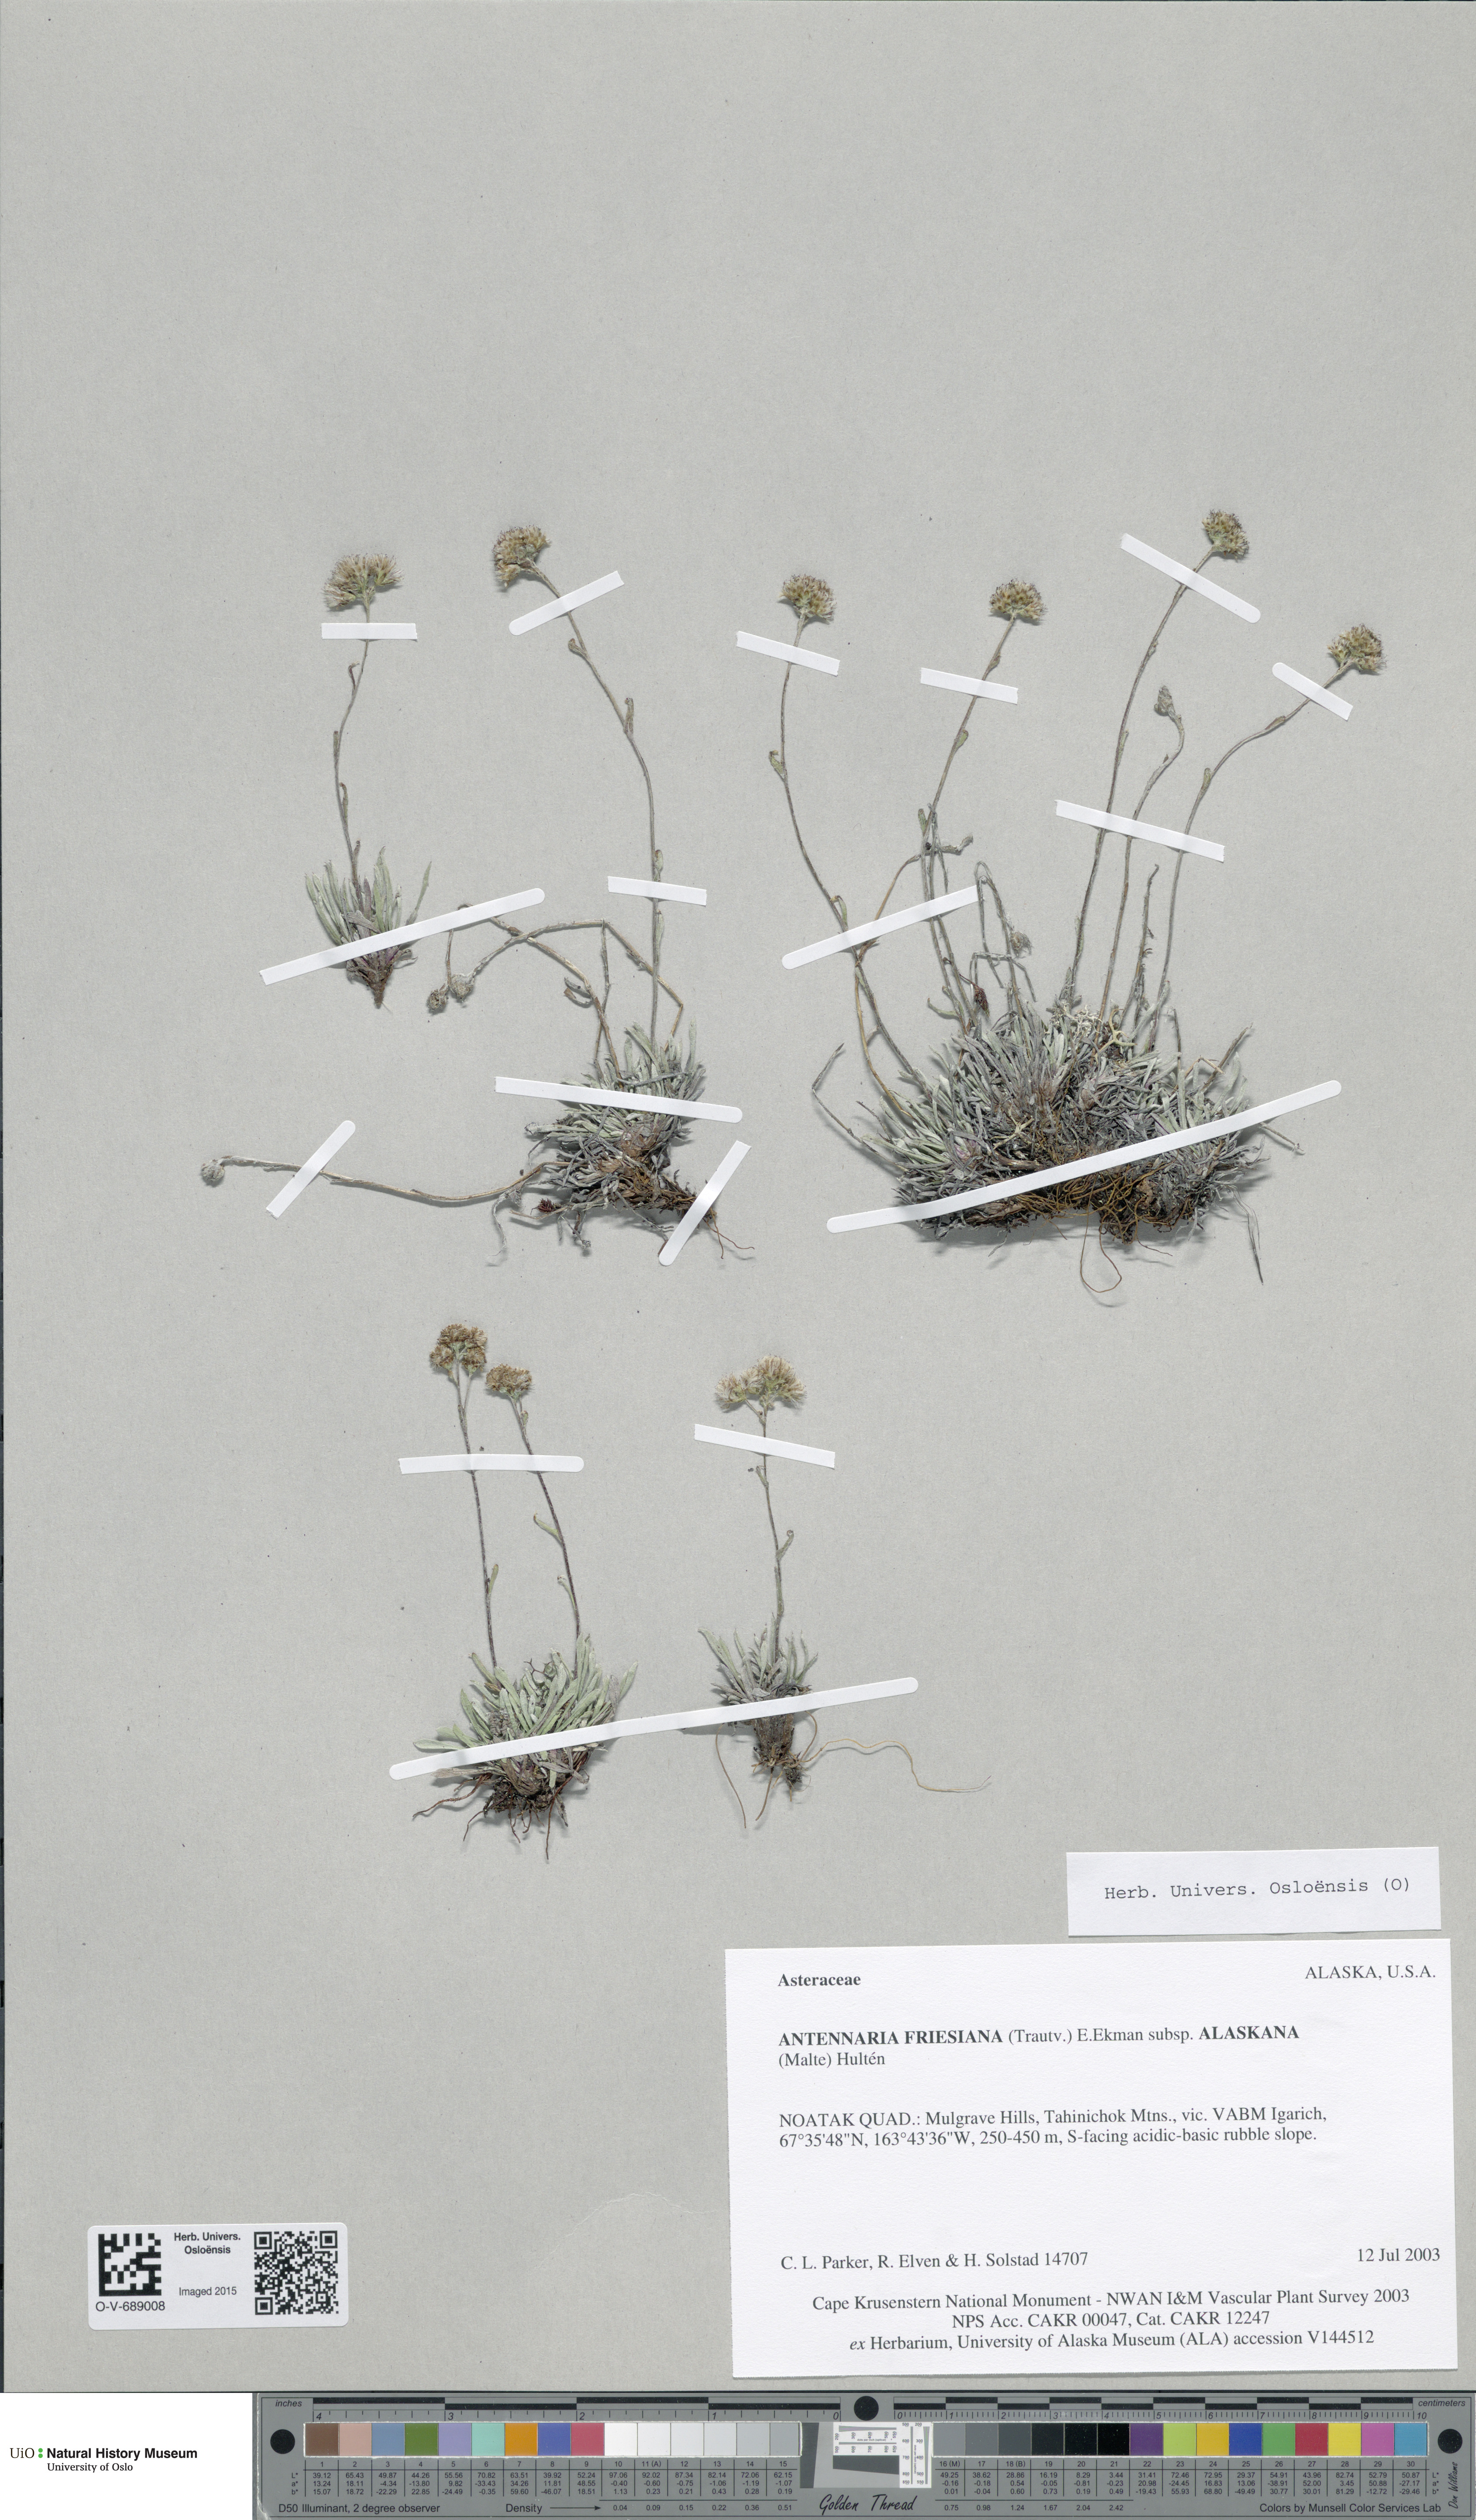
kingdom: Plantae
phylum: Tracheophyta
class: Magnoliopsida
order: Asterales
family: Asteraceae
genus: Antennaria
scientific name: Antennaria friesiana
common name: Fries' pussytoes
